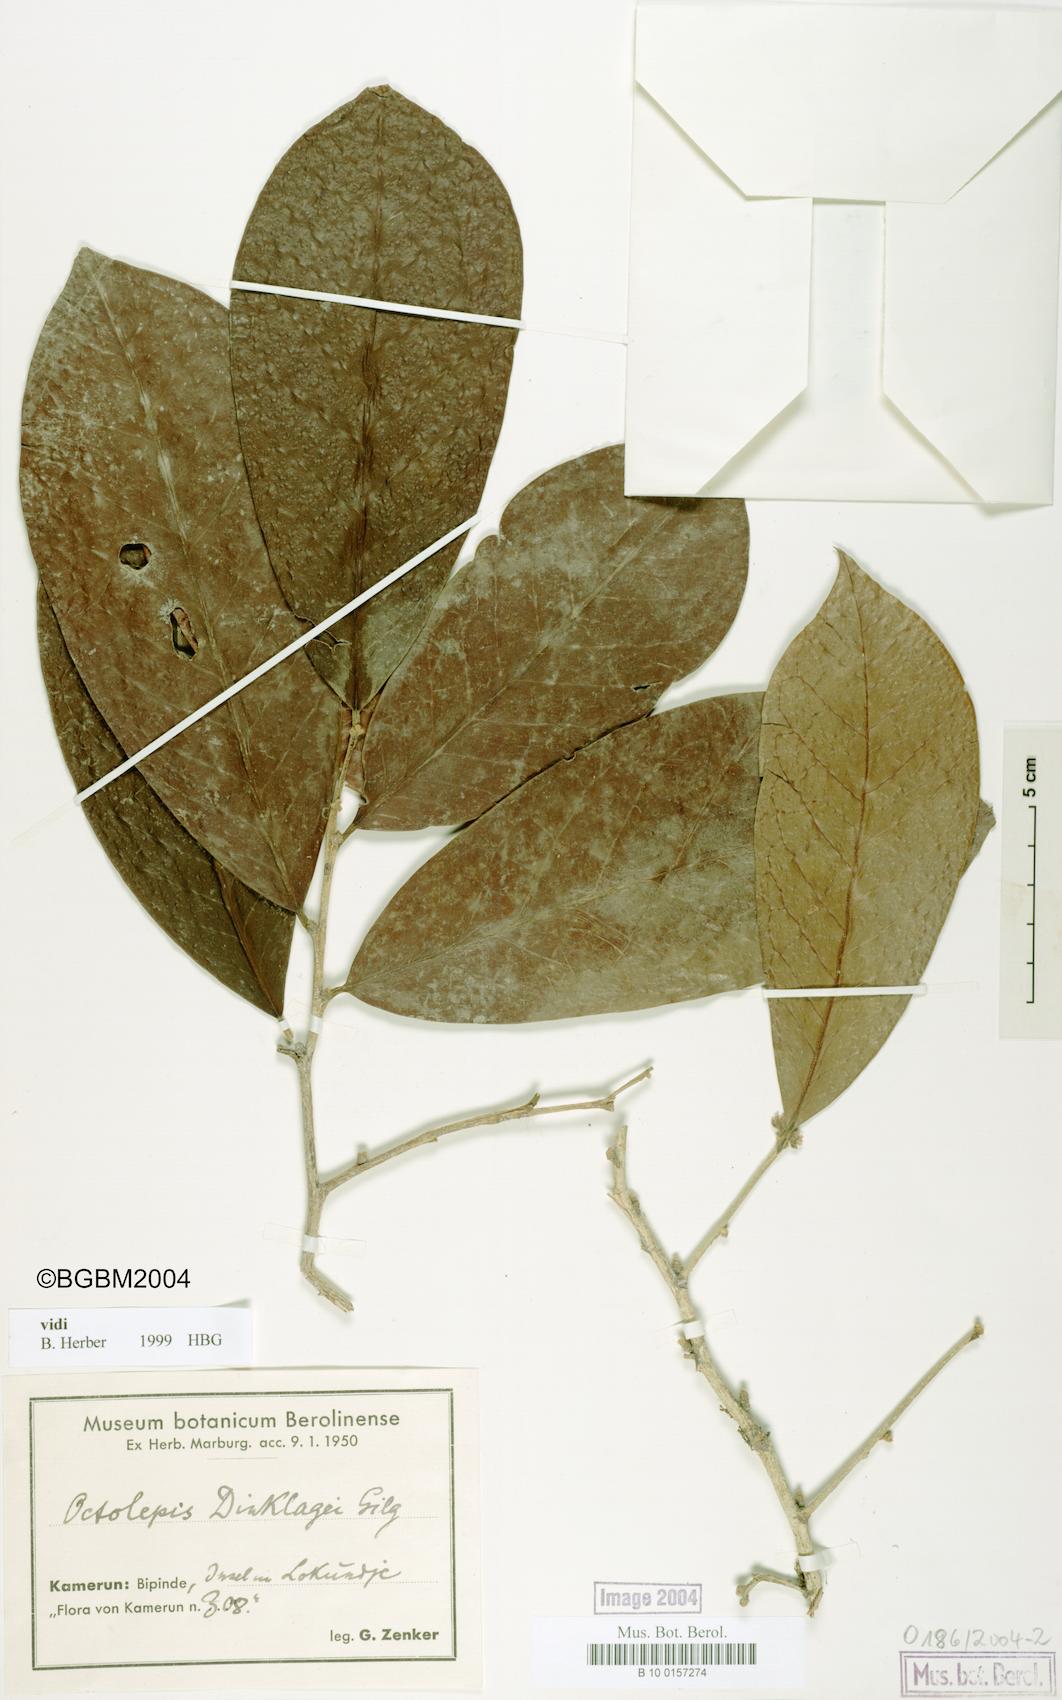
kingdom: Plantae
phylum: Tracheophyta
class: Magnoliopsida
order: Malvales
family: Thymelaeaceae
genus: Octolepis
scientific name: Octolepis casearia
